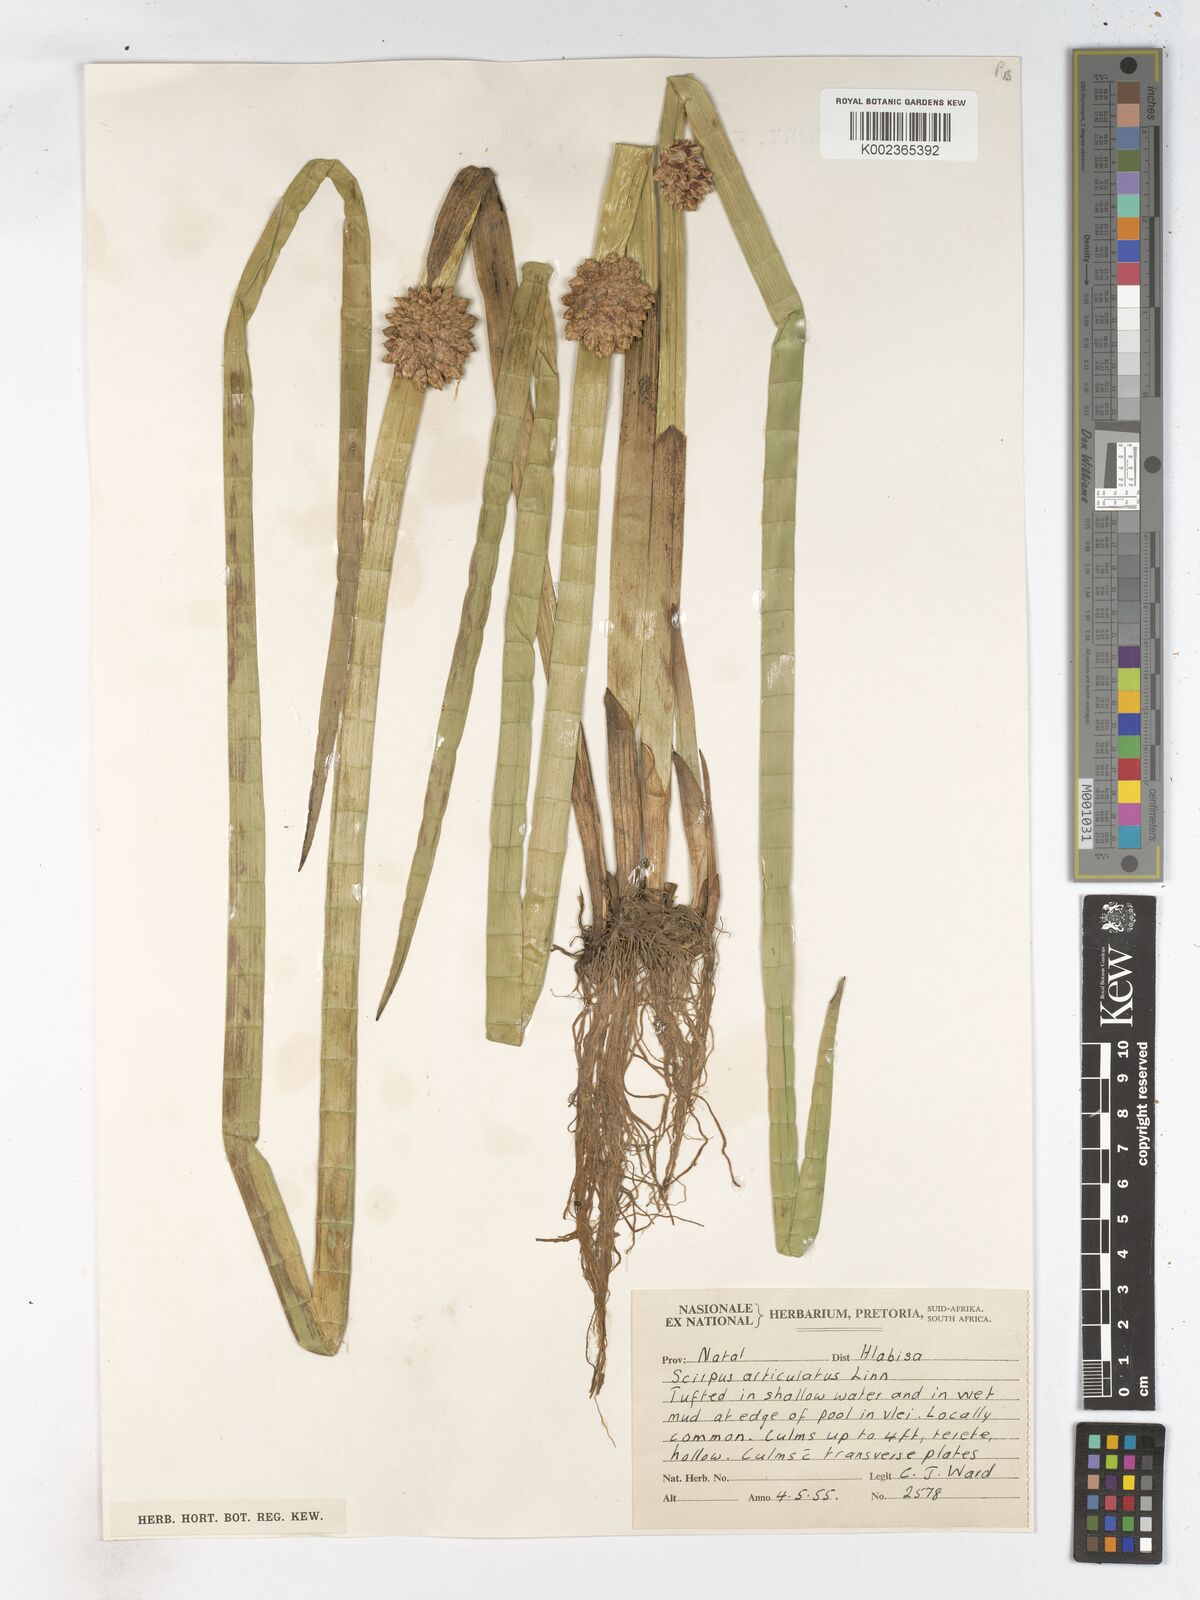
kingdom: Plantae
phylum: Tracheophyta
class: Liliopsida
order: Poales
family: Cyperaceae
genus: Schoenoplectiella
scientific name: Schoenoplectiella articulata
